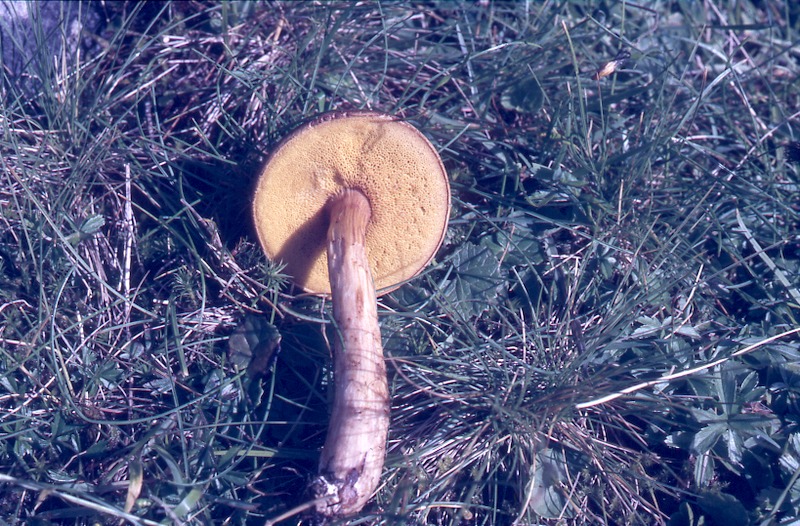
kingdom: Fungi
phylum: Basidiomycota
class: Agaricomycetes
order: Boletales
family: Boletaceae
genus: Xerocomus
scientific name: Xerocomus ferrugineus
